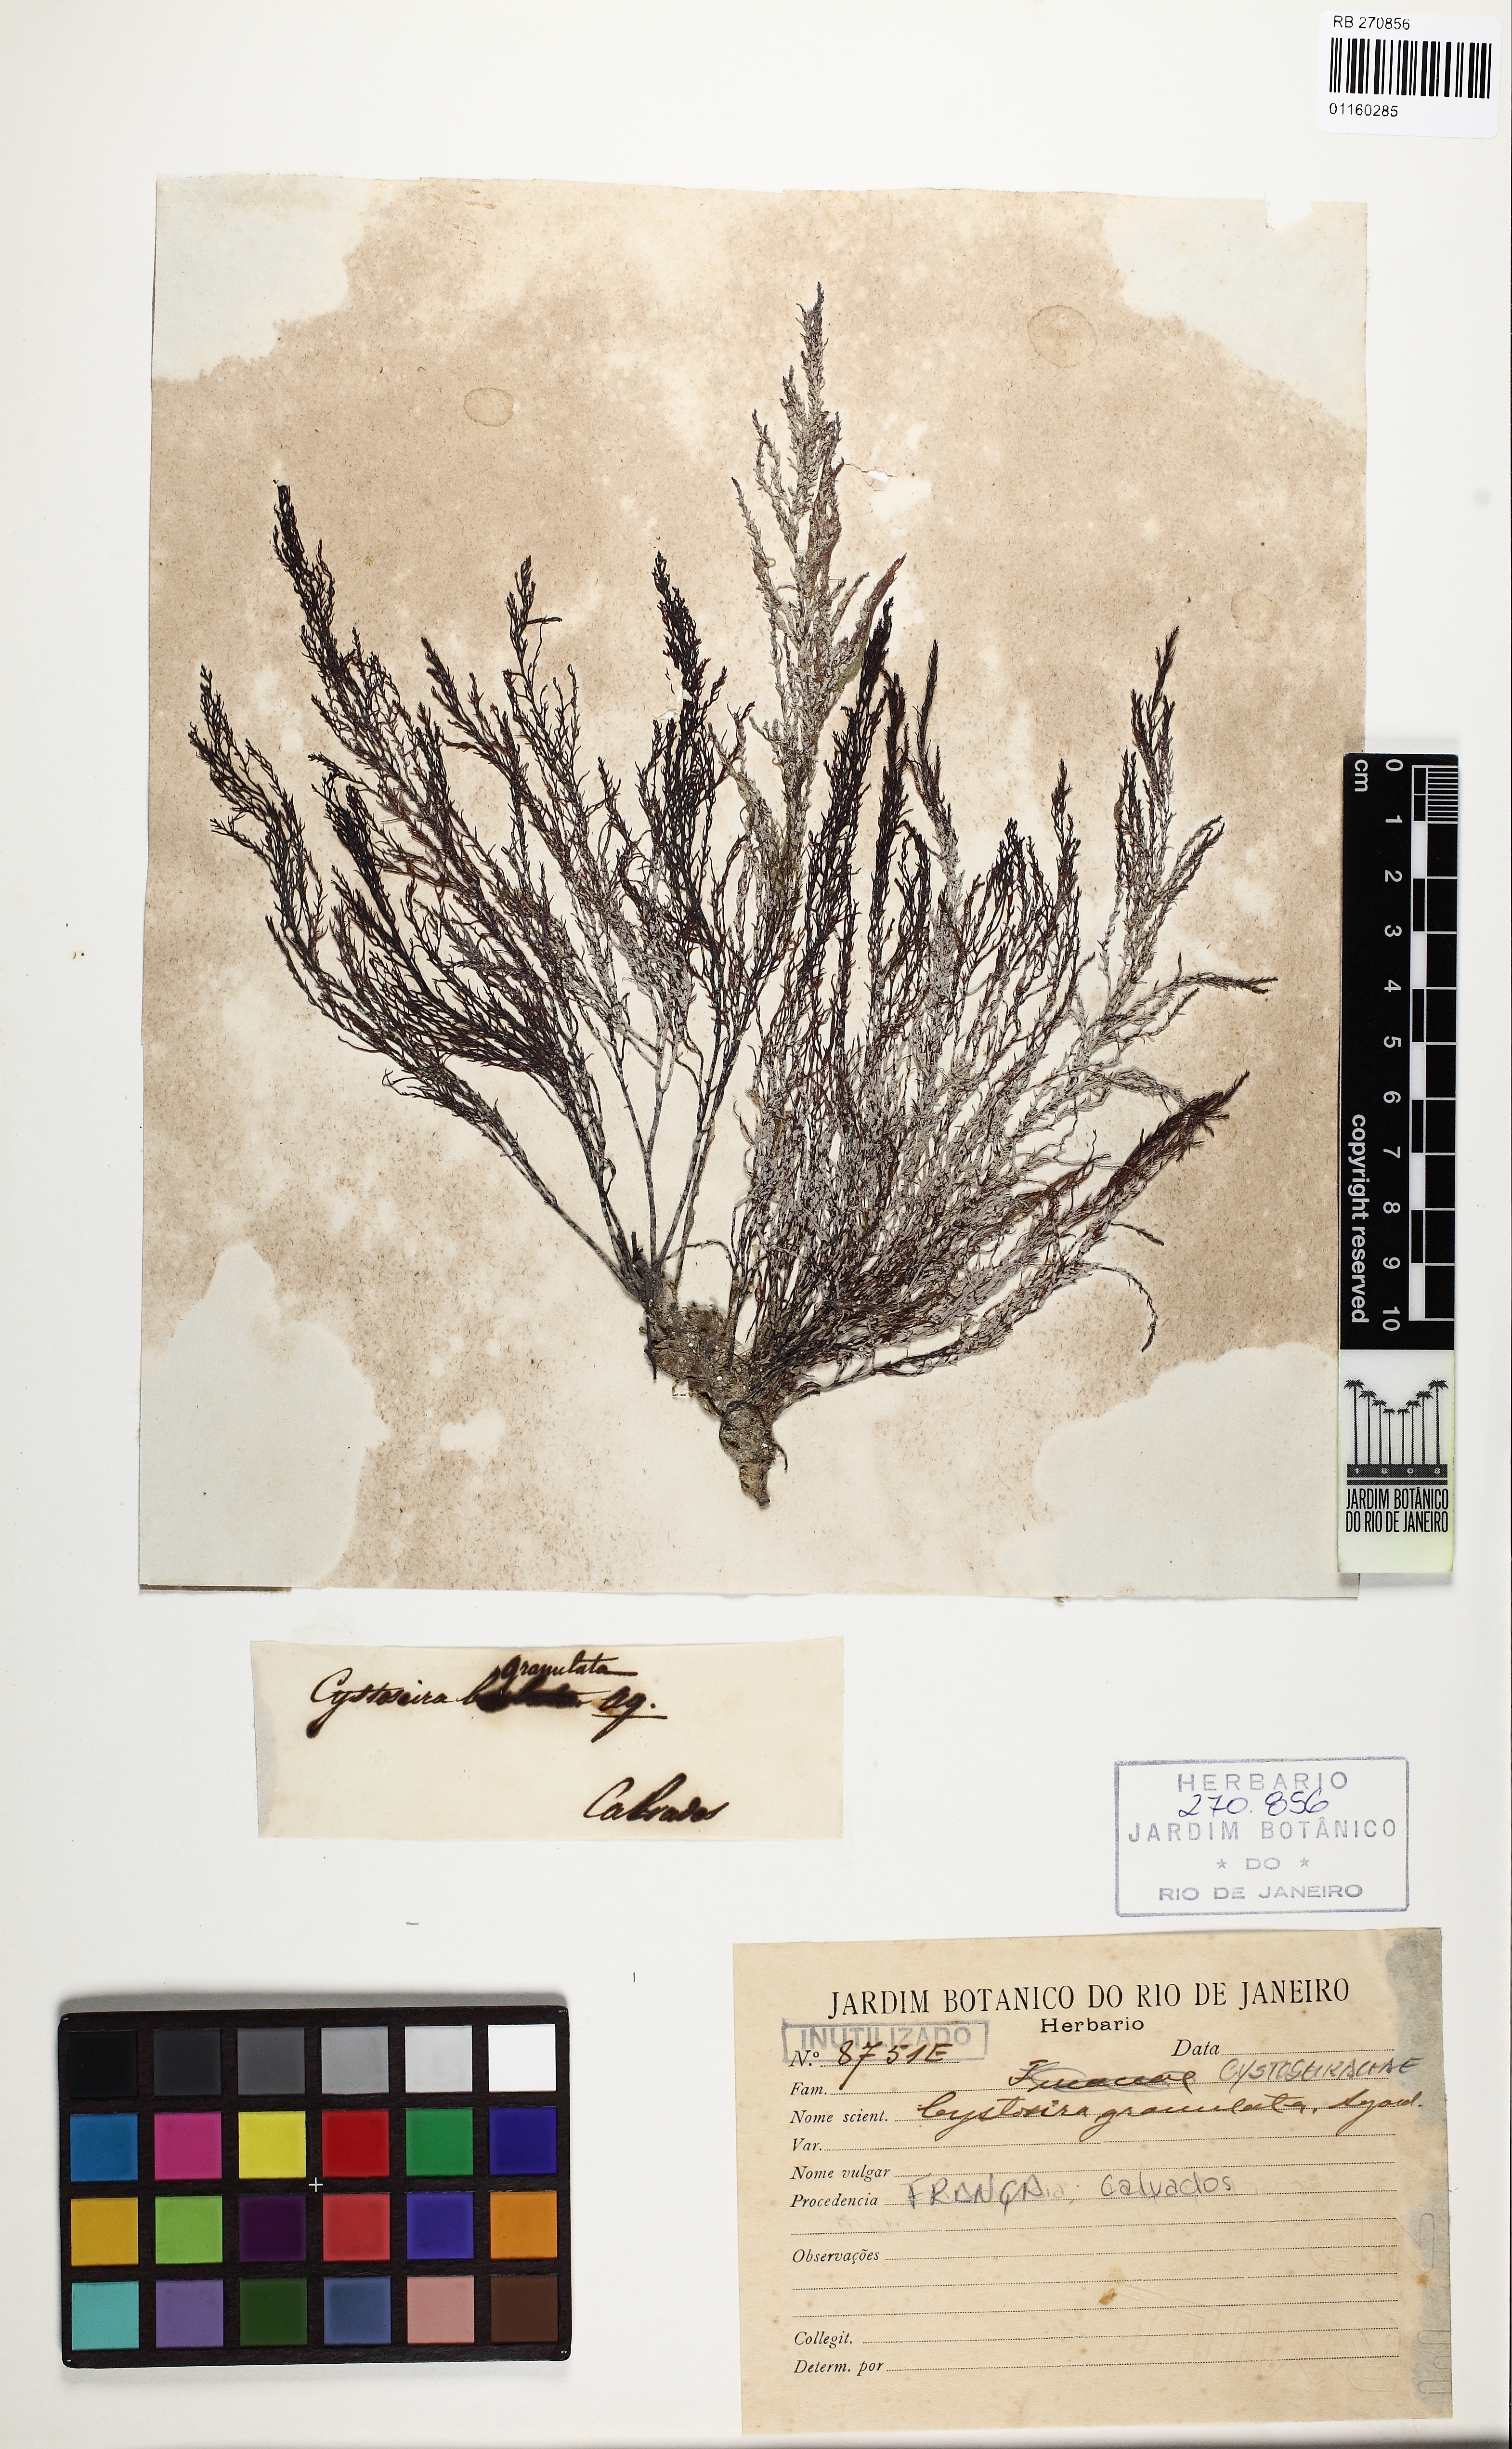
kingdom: Chromista
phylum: Ochrophyta
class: Phaeophyceae
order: Fucales
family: Sargassaceae
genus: Cystoseira
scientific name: Cystoseira Gongolaria usneoides
